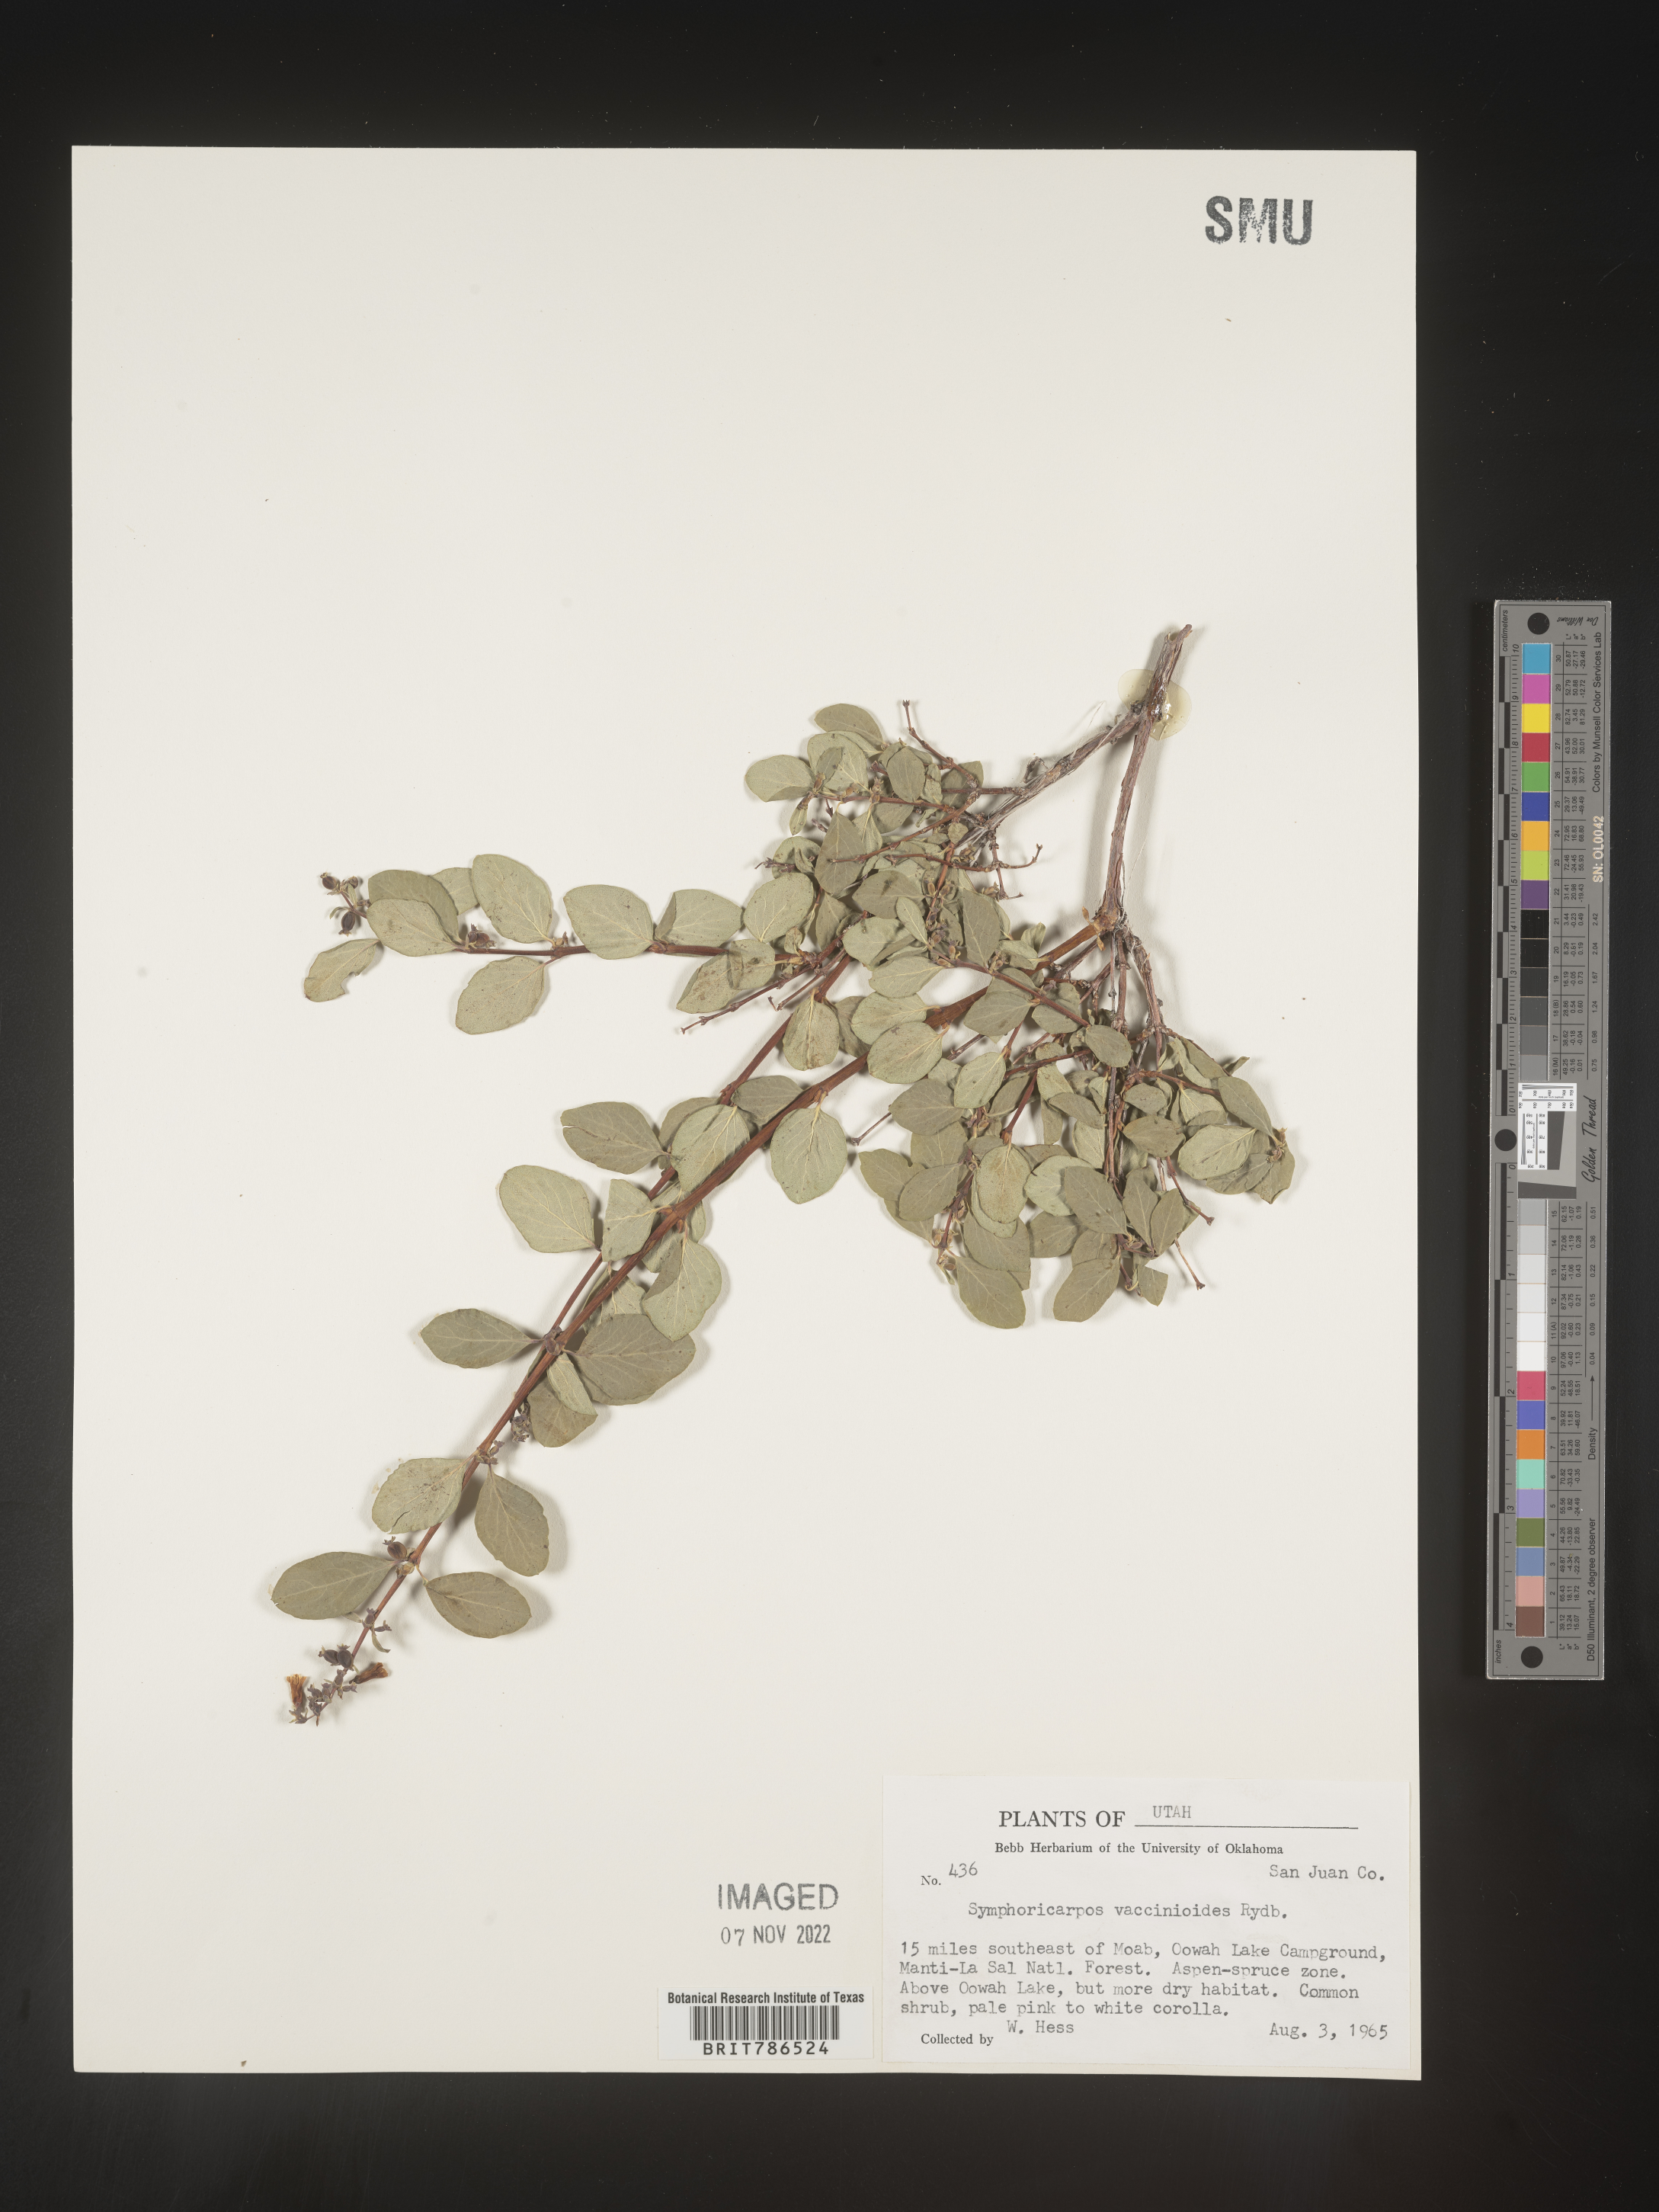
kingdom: Plantae
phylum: Tracheophyta
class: Magnoliopsida
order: Dipsacales
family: Caprifoliaceae
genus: Symphoricarpos
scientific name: Symphoricarpos
